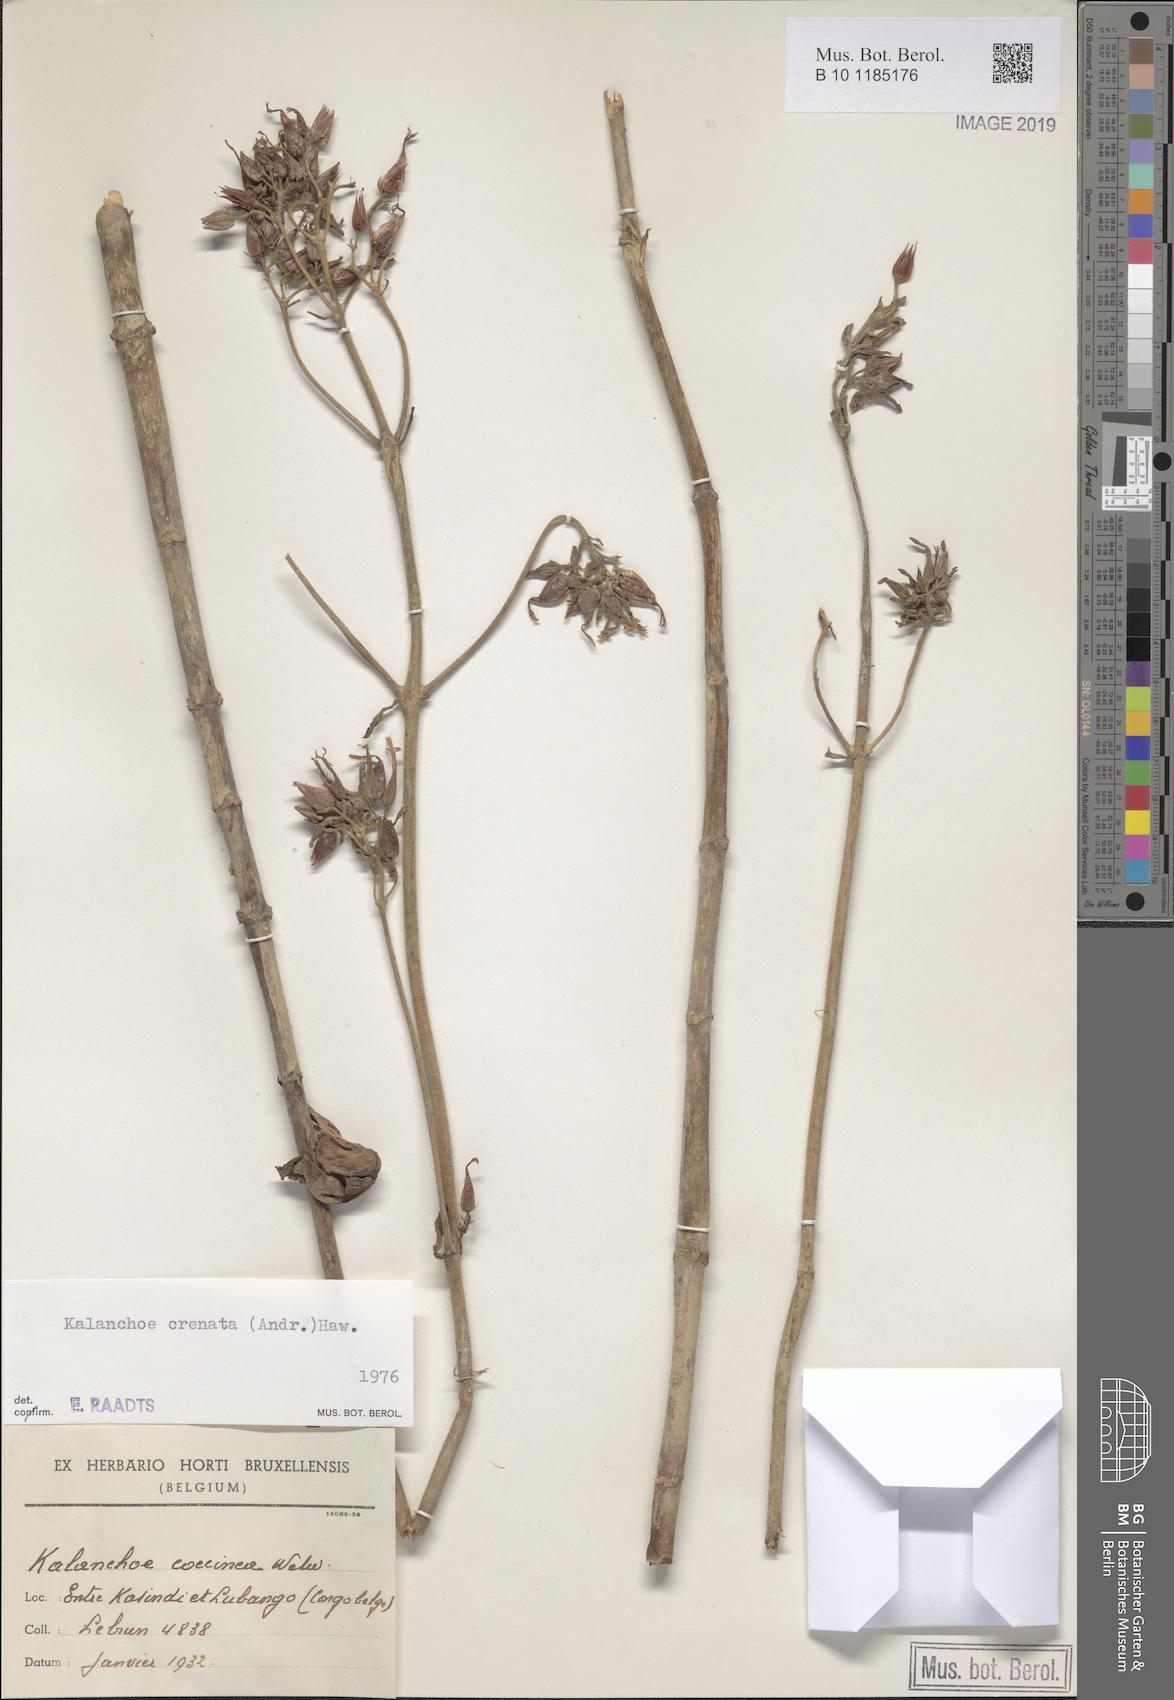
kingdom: Plantae
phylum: Tracheophyta
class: Magnoliopsida
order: Saxifragales
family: Crassulaceae
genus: Kalanchoe
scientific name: Kalanchoe crenata
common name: Neverdie
